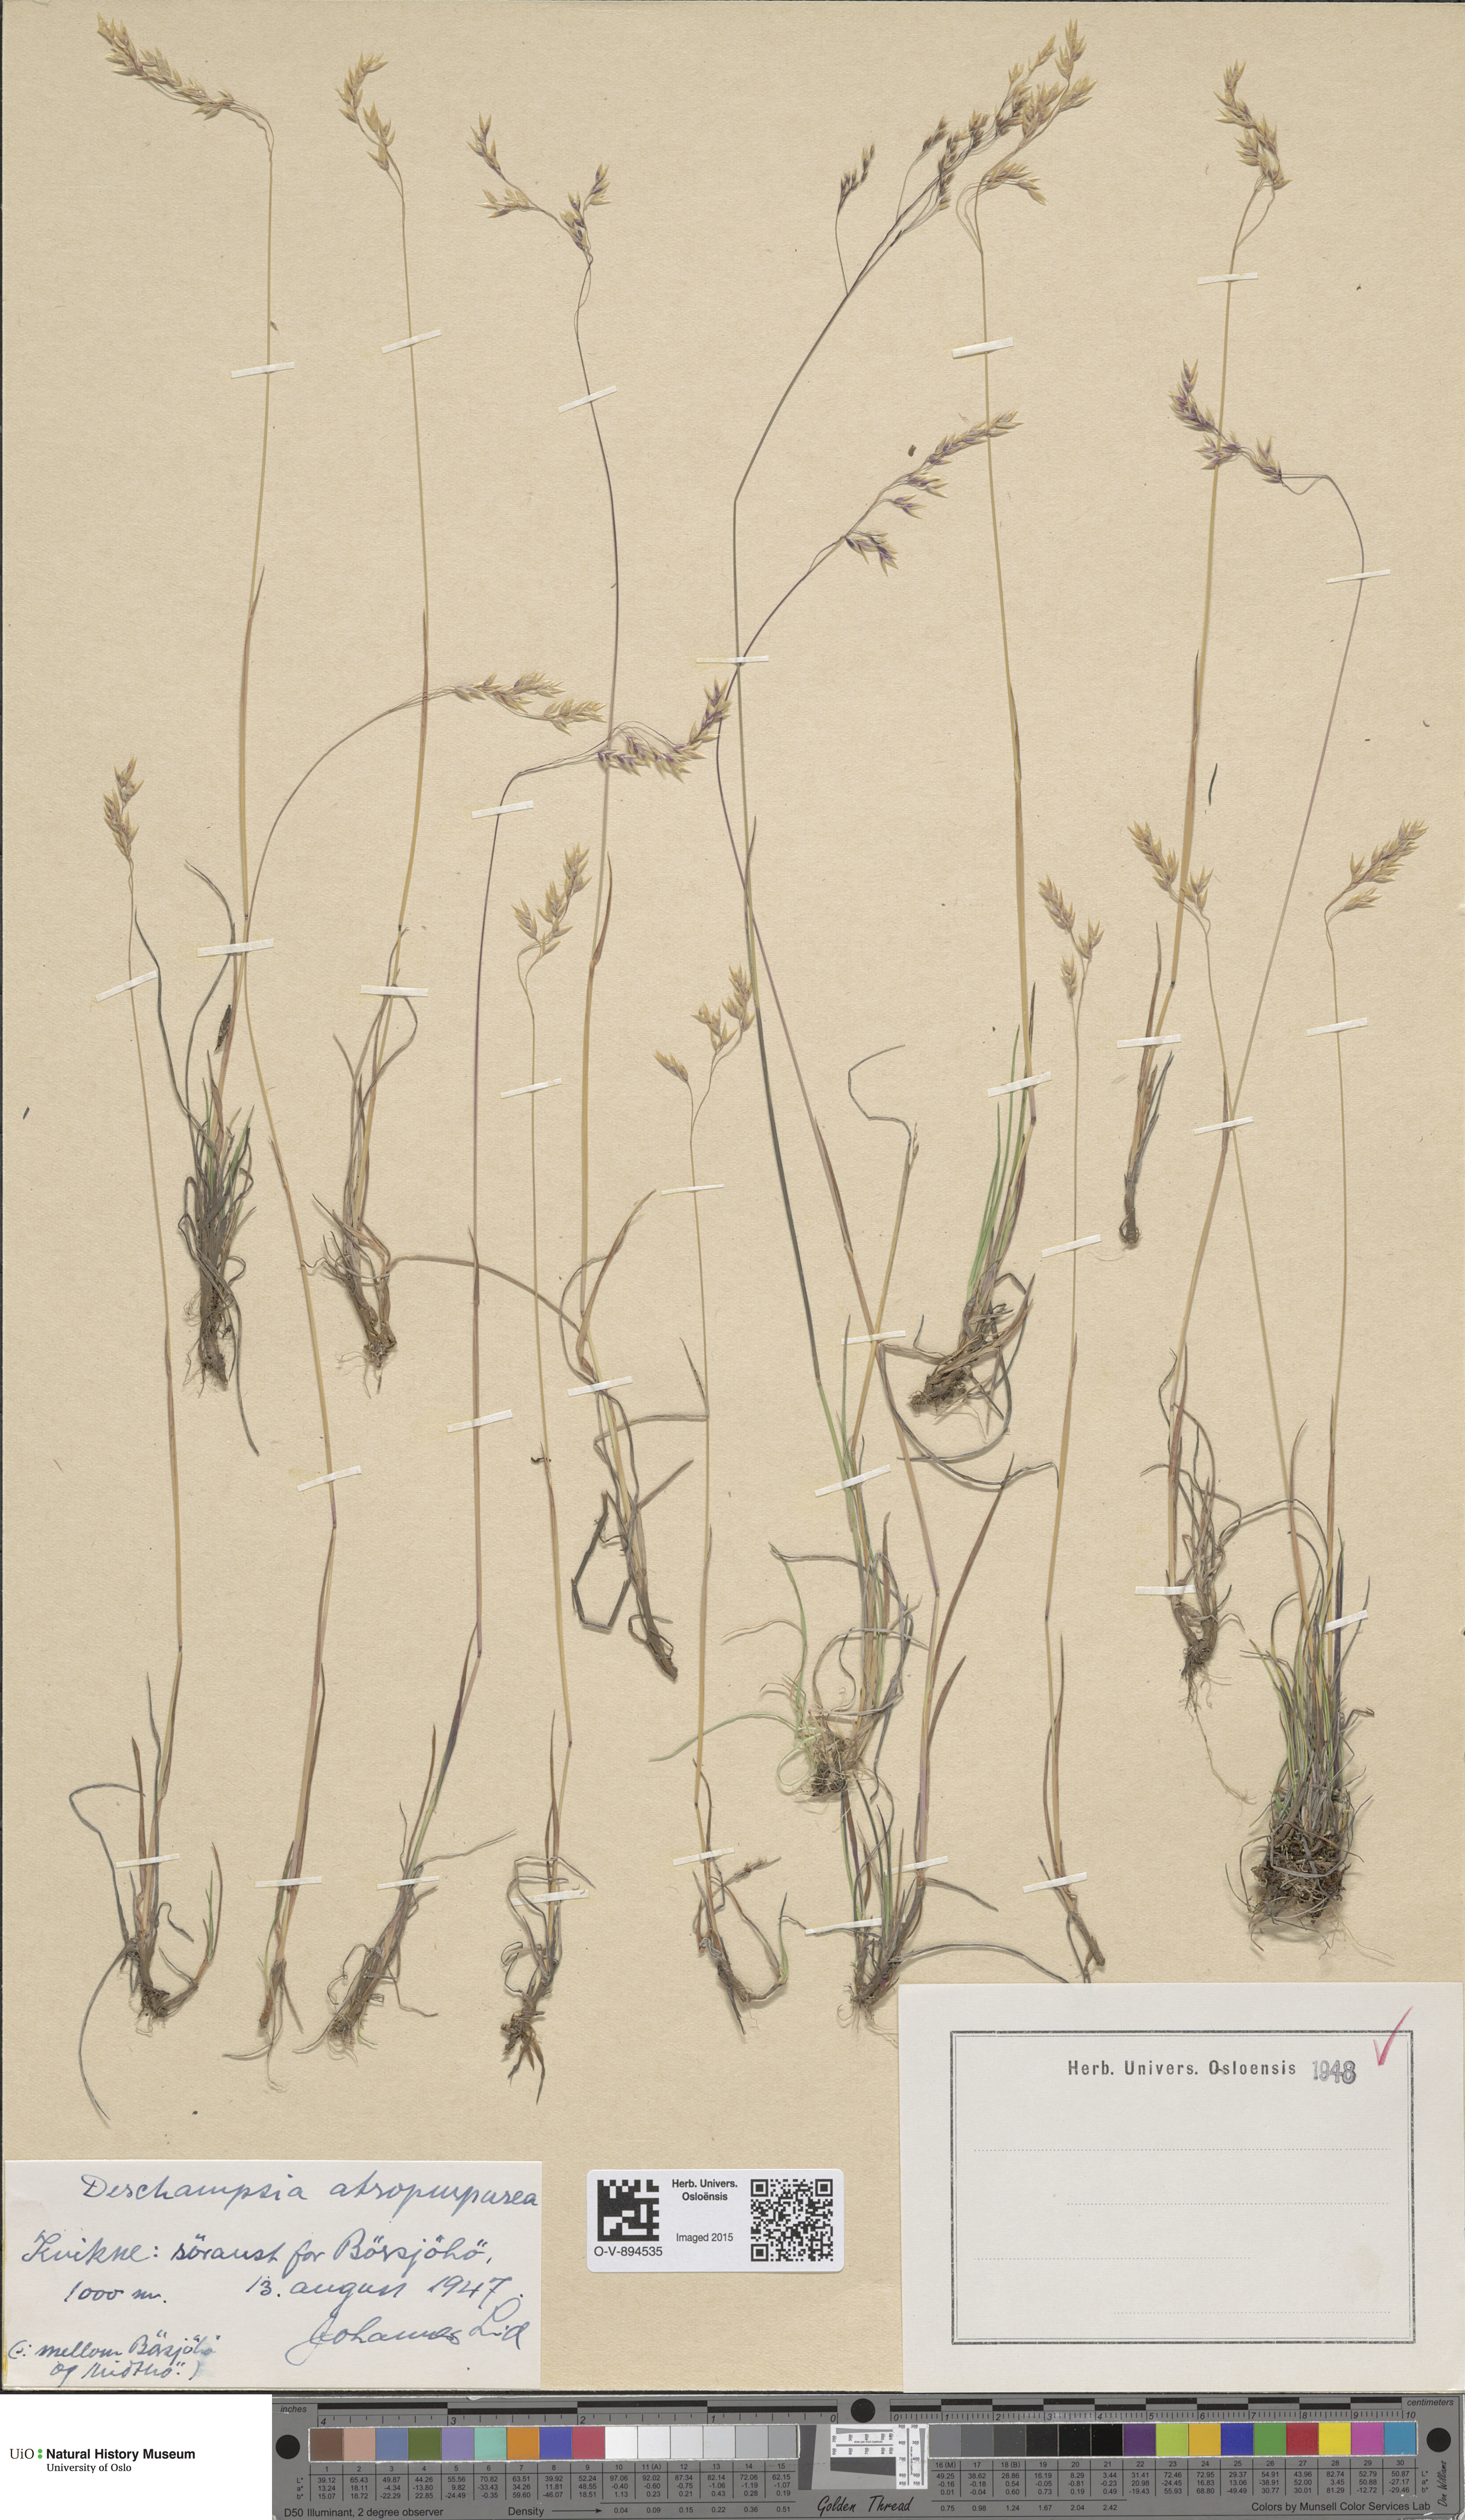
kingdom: Plantae
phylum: Tracheophyta
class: Liliopsida
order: Poales
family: Poaceae
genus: Vahlodea
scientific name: Vahlodea atropurpurea
